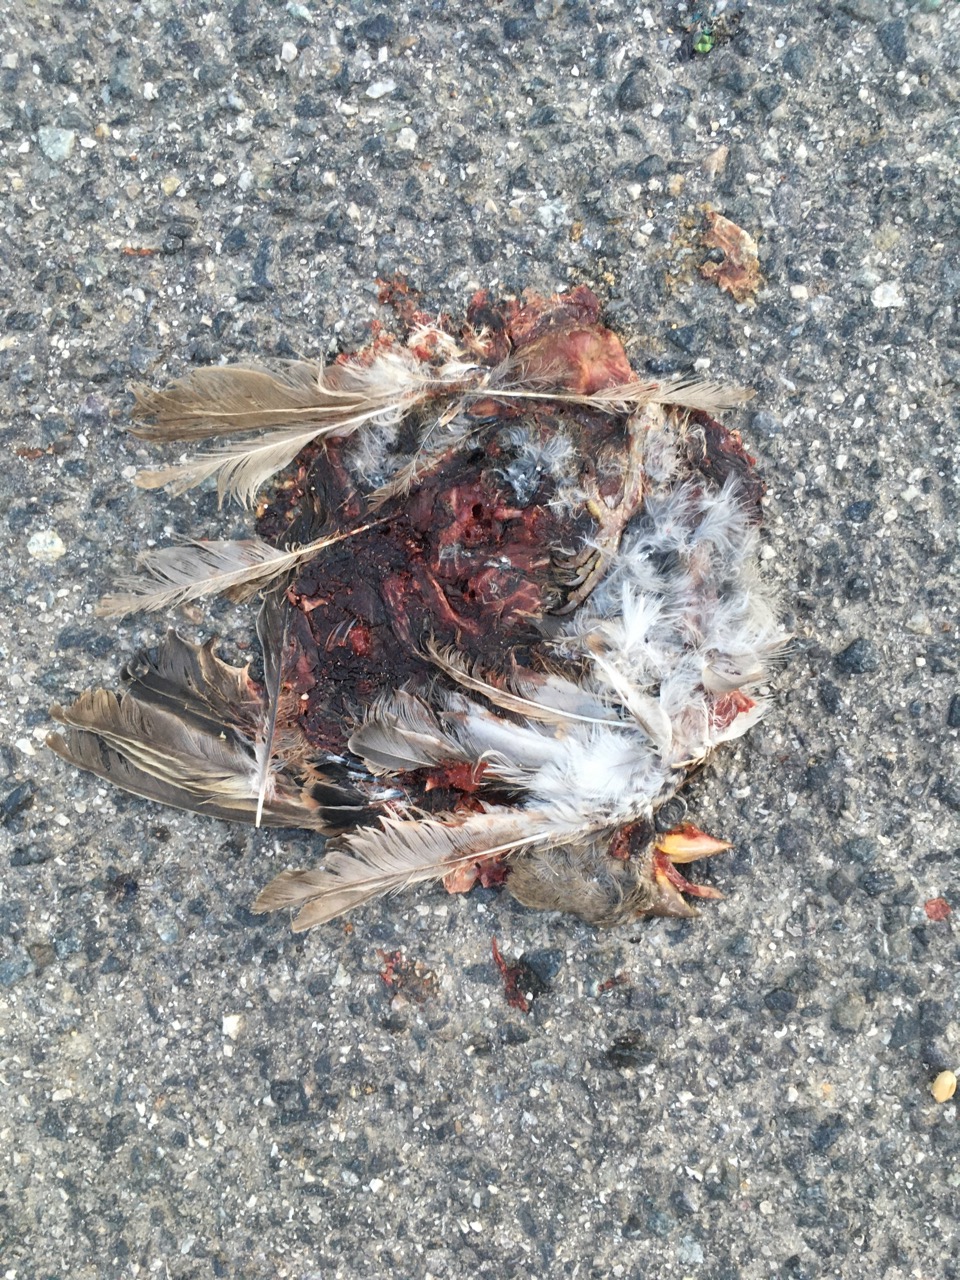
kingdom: Animalia
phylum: Chordata
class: Aves
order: Passeriformes
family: Passeridae
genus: Passer
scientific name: Passer
